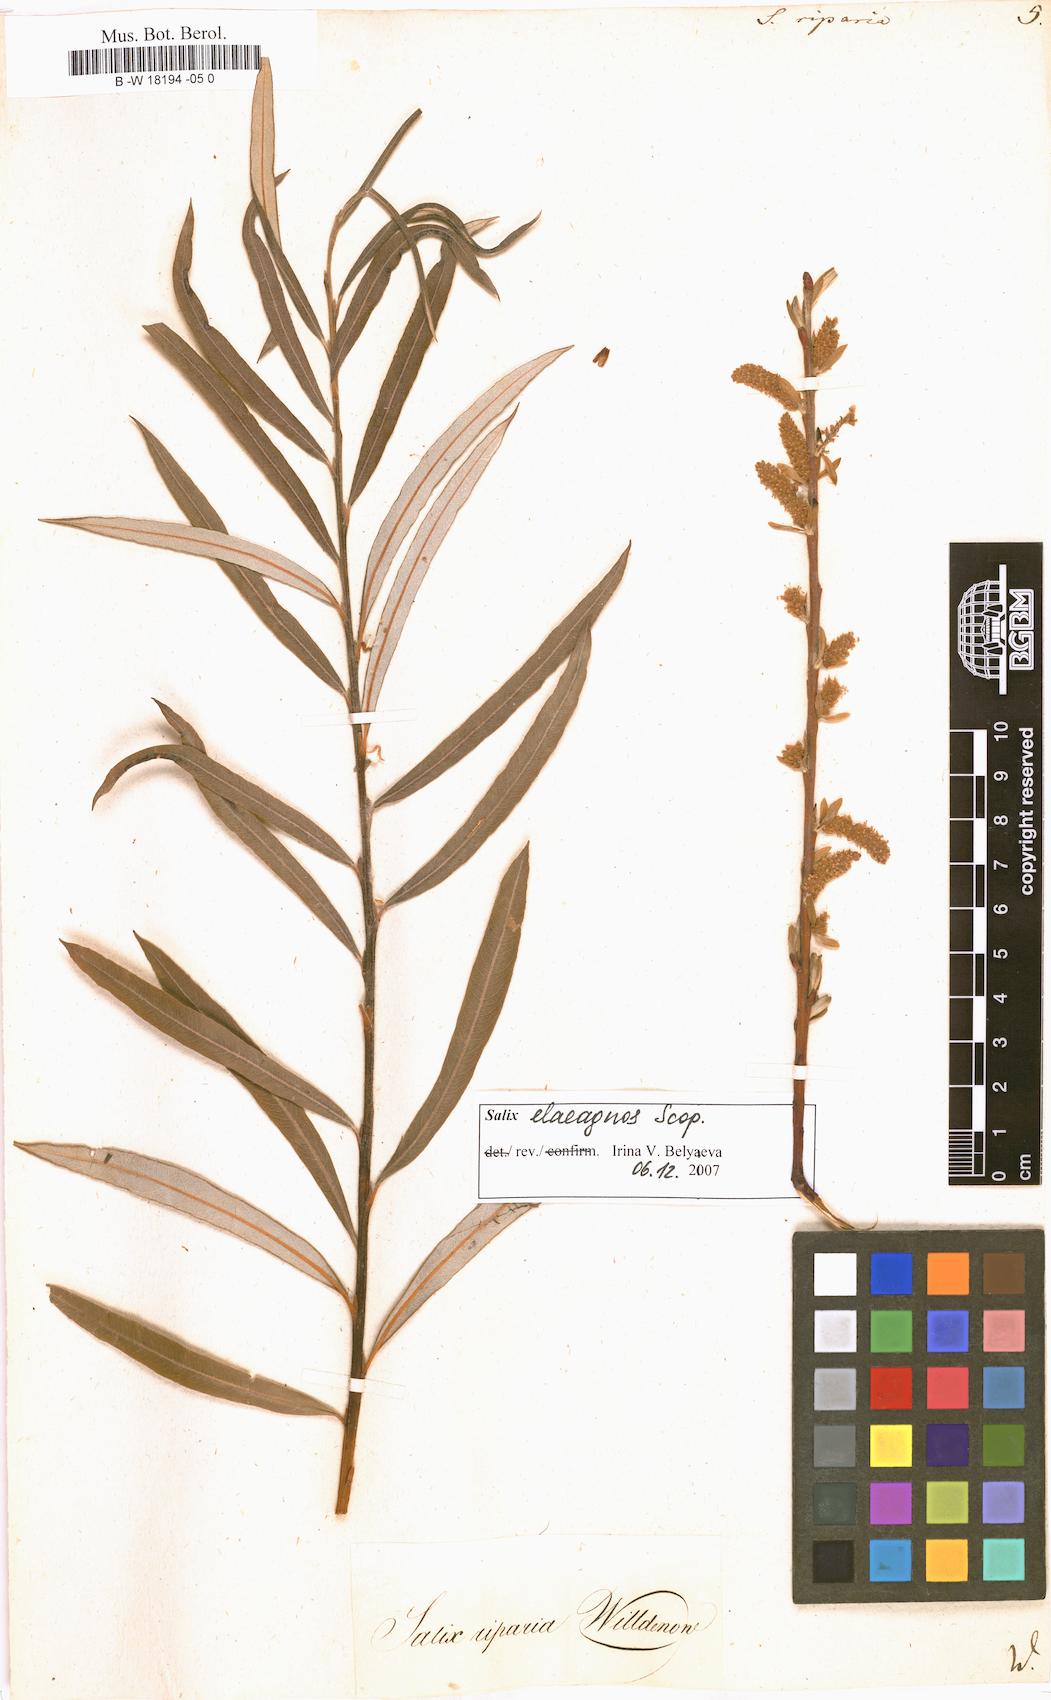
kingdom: Plantae
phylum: Tracheophyta
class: Magnoliopsida
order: Malpighiales
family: Salicaceae
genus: Salix
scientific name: Salix eleagnos
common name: Elaeagnus willow
